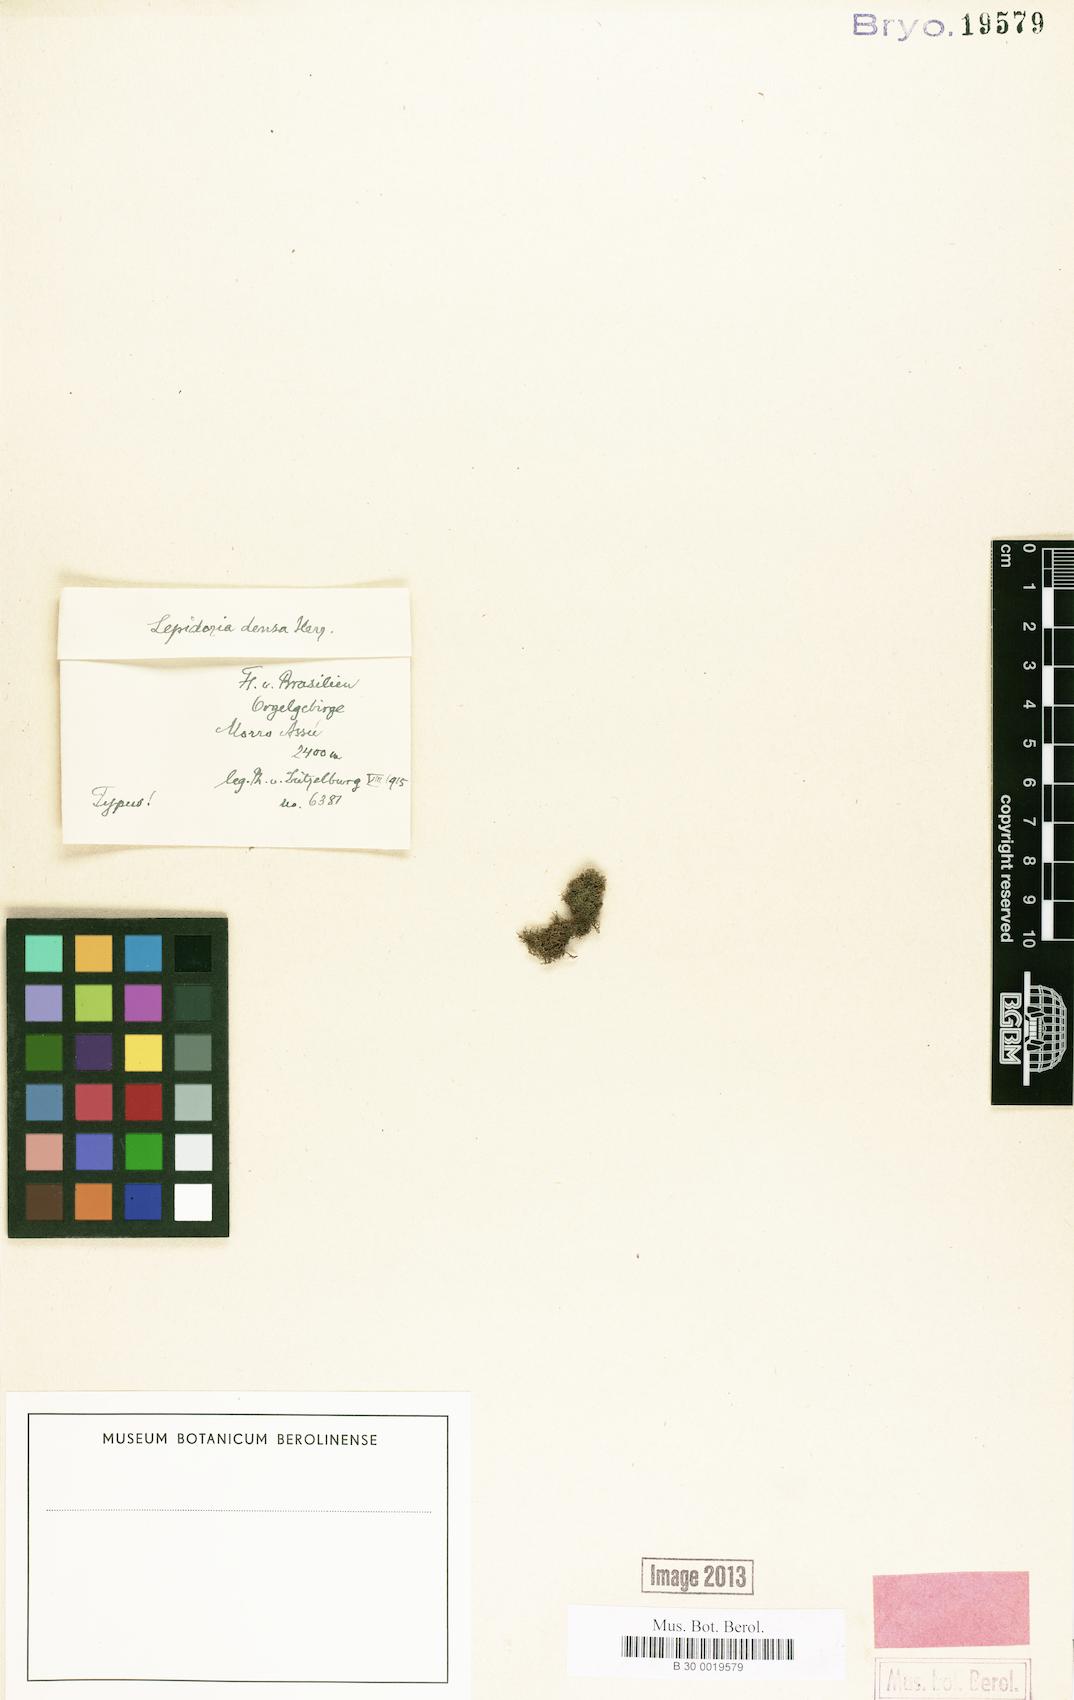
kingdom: Plantae
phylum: Marchantiophyta
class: Jungermanniopsida
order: Jungermanniales
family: Lepidoziaceae
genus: Lepidozia
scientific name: Lepidozia densa
